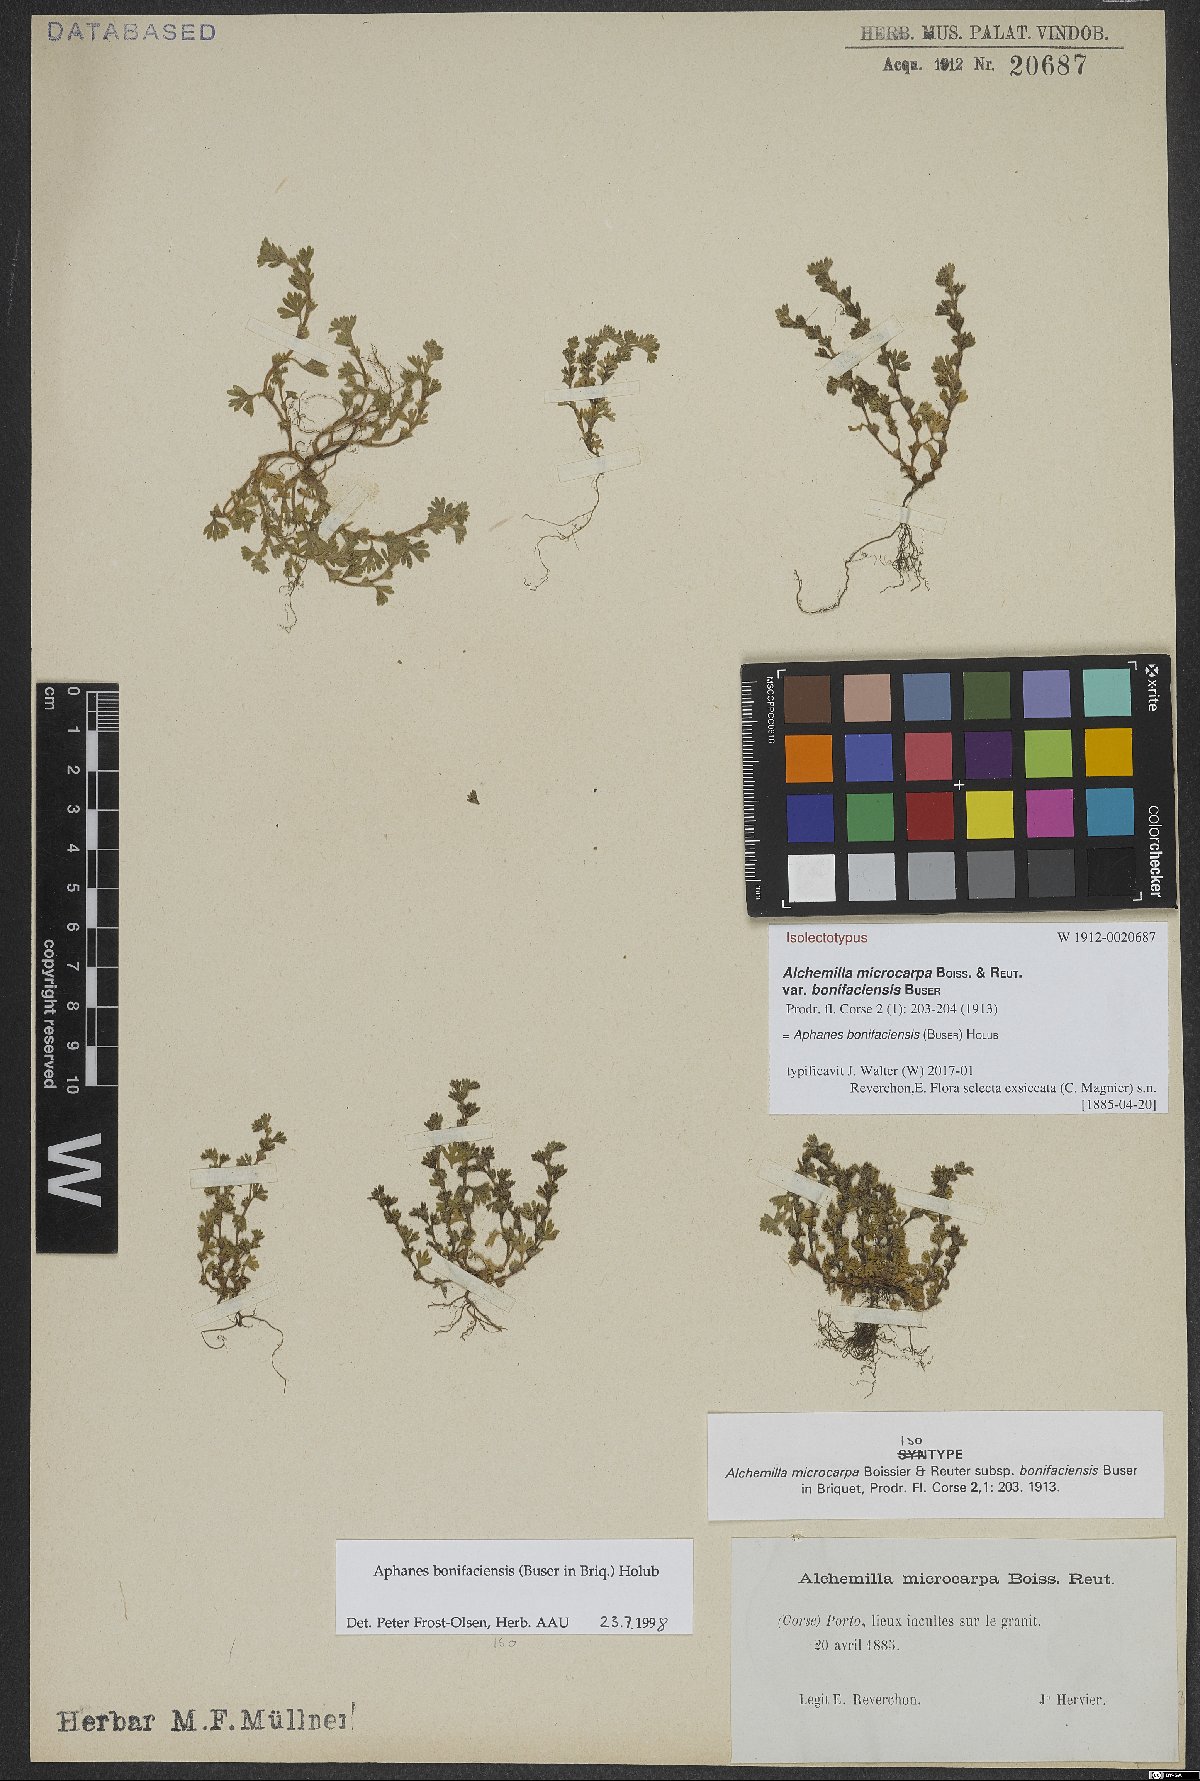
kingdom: Plantae
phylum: Tracheophyta
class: Magnoliopsida
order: Rosales
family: Rosaceae
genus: Aphanes
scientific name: Aphanes minutiflora
